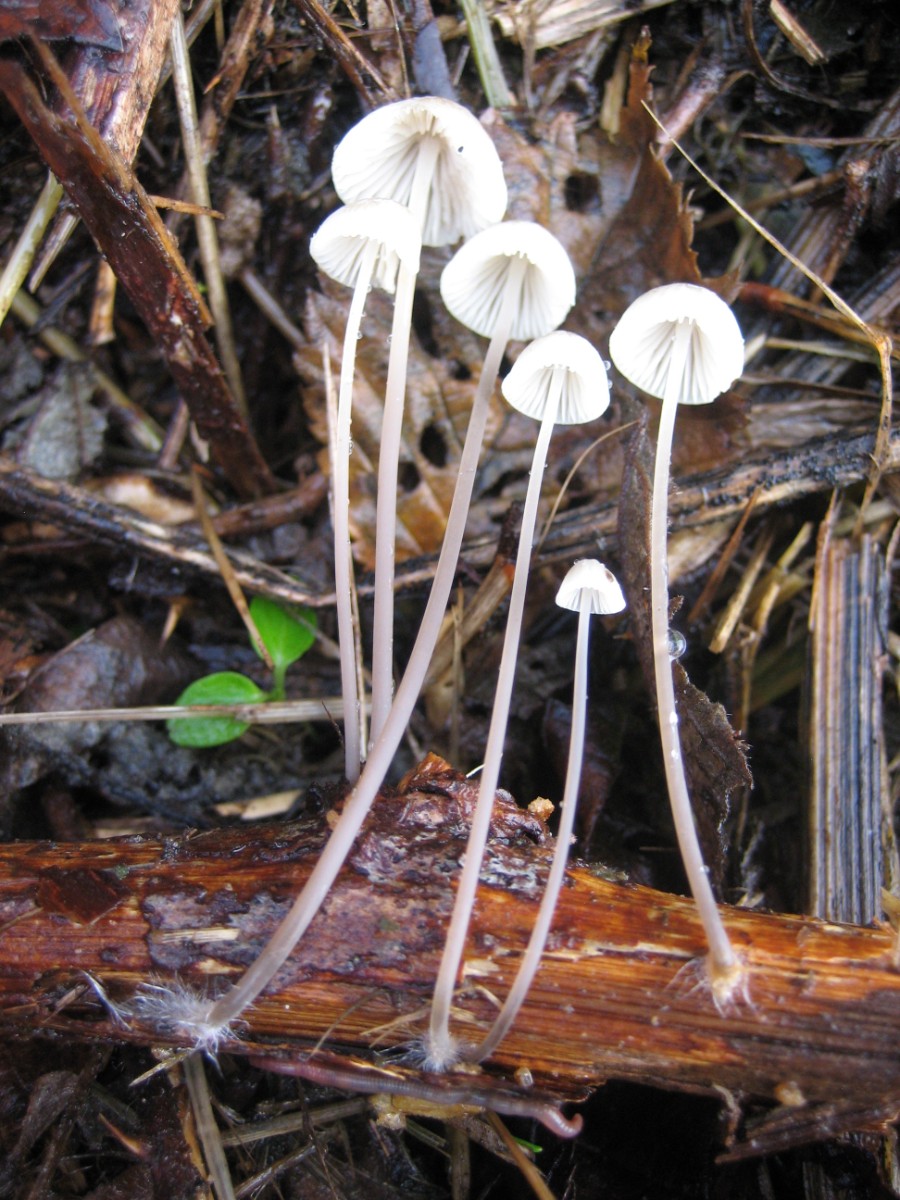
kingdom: Fungi
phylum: Basidiomycota
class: Agaricomycetes
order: Agaricales
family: Mycenaceae
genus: Mycena
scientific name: Mycena arcangeliana
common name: oliven-huesvamp
